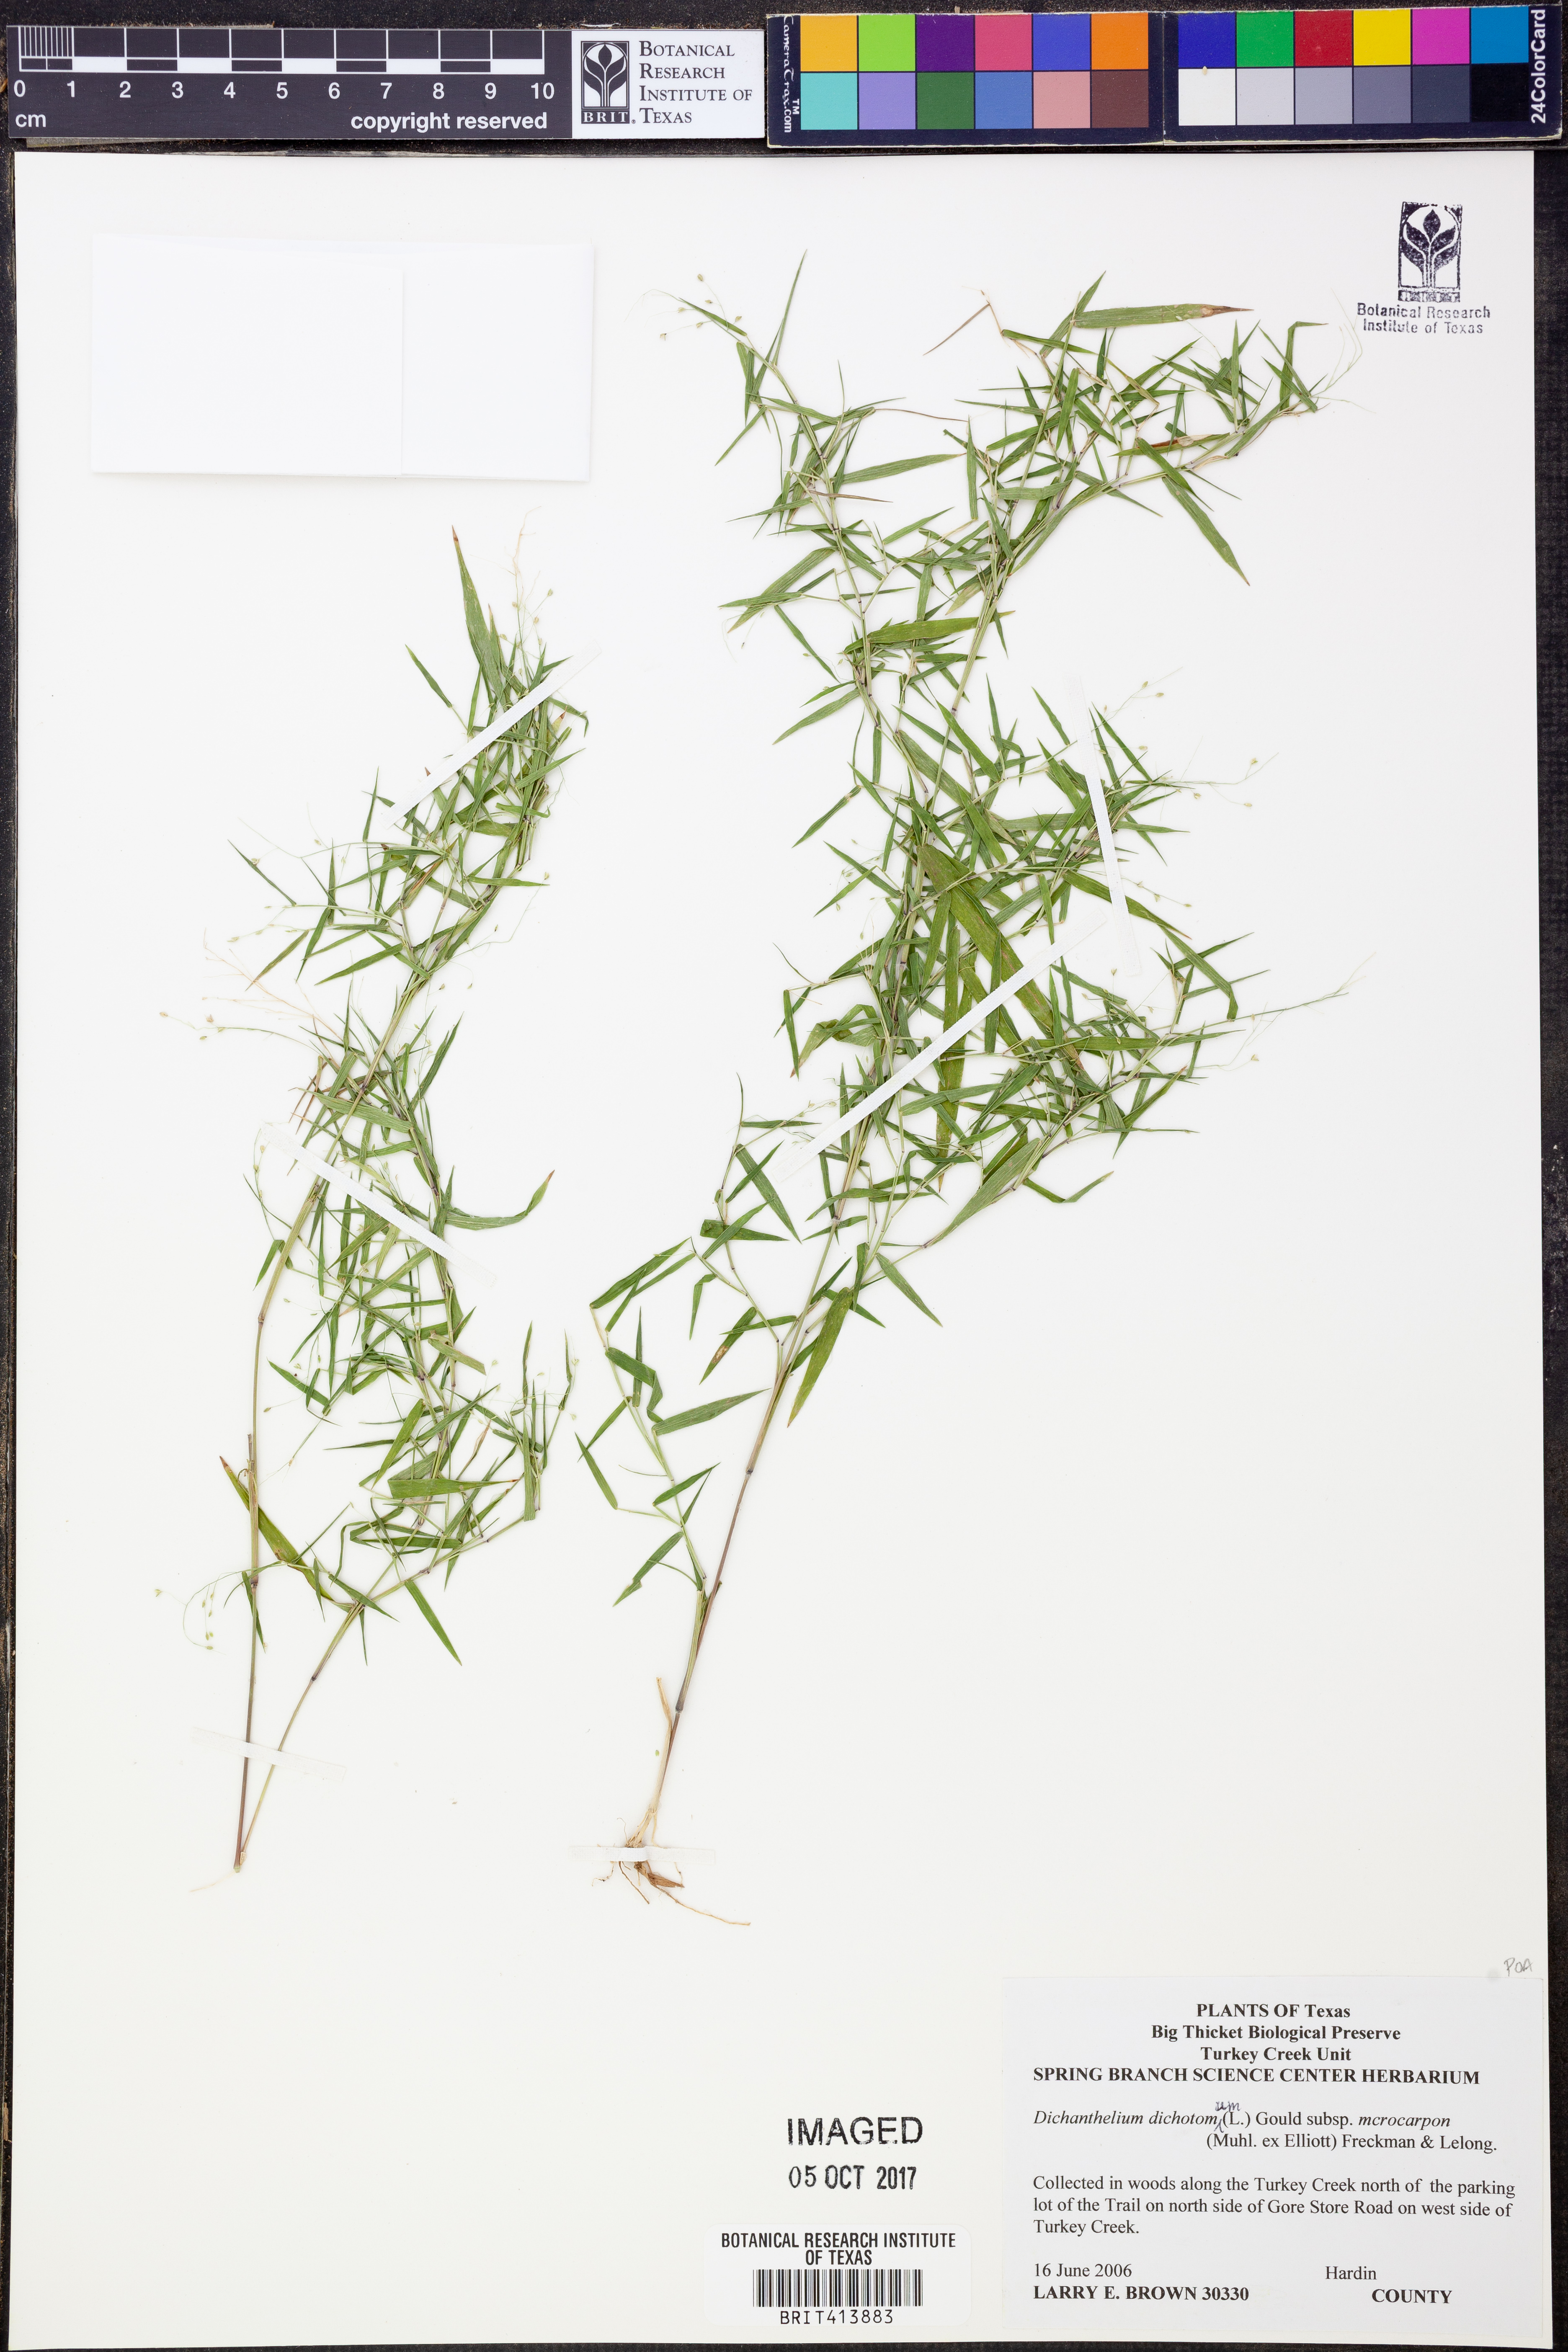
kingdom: Plantae
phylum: Tracheophyta
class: Liliopsida
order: Poales
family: Poaceae
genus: Dichanthelium
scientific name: Dichanthelium microcarpon
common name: Small-fruited witchgrass
